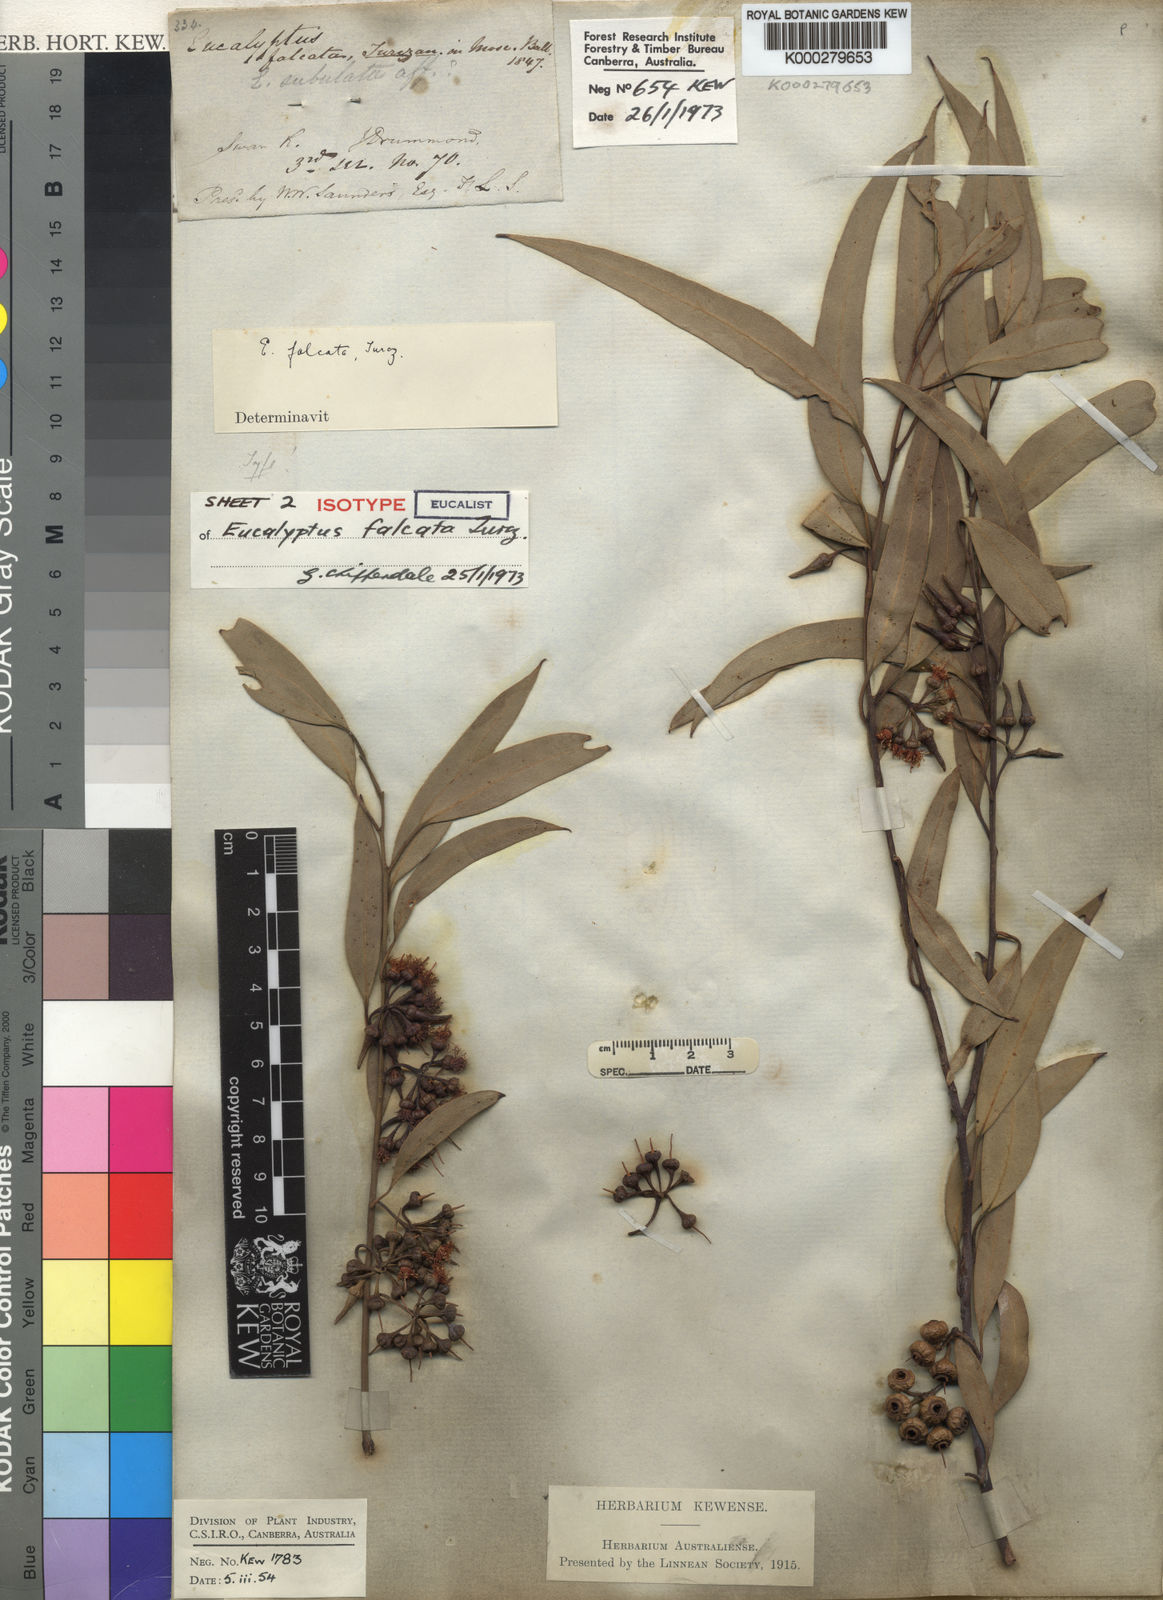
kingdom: Plantae
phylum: Tracheophyta
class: Magnoliopsida
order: Myrtales
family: Myrtaceae
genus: Eucalyptus
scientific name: Eucalyptus falcata
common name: Silver mallet
